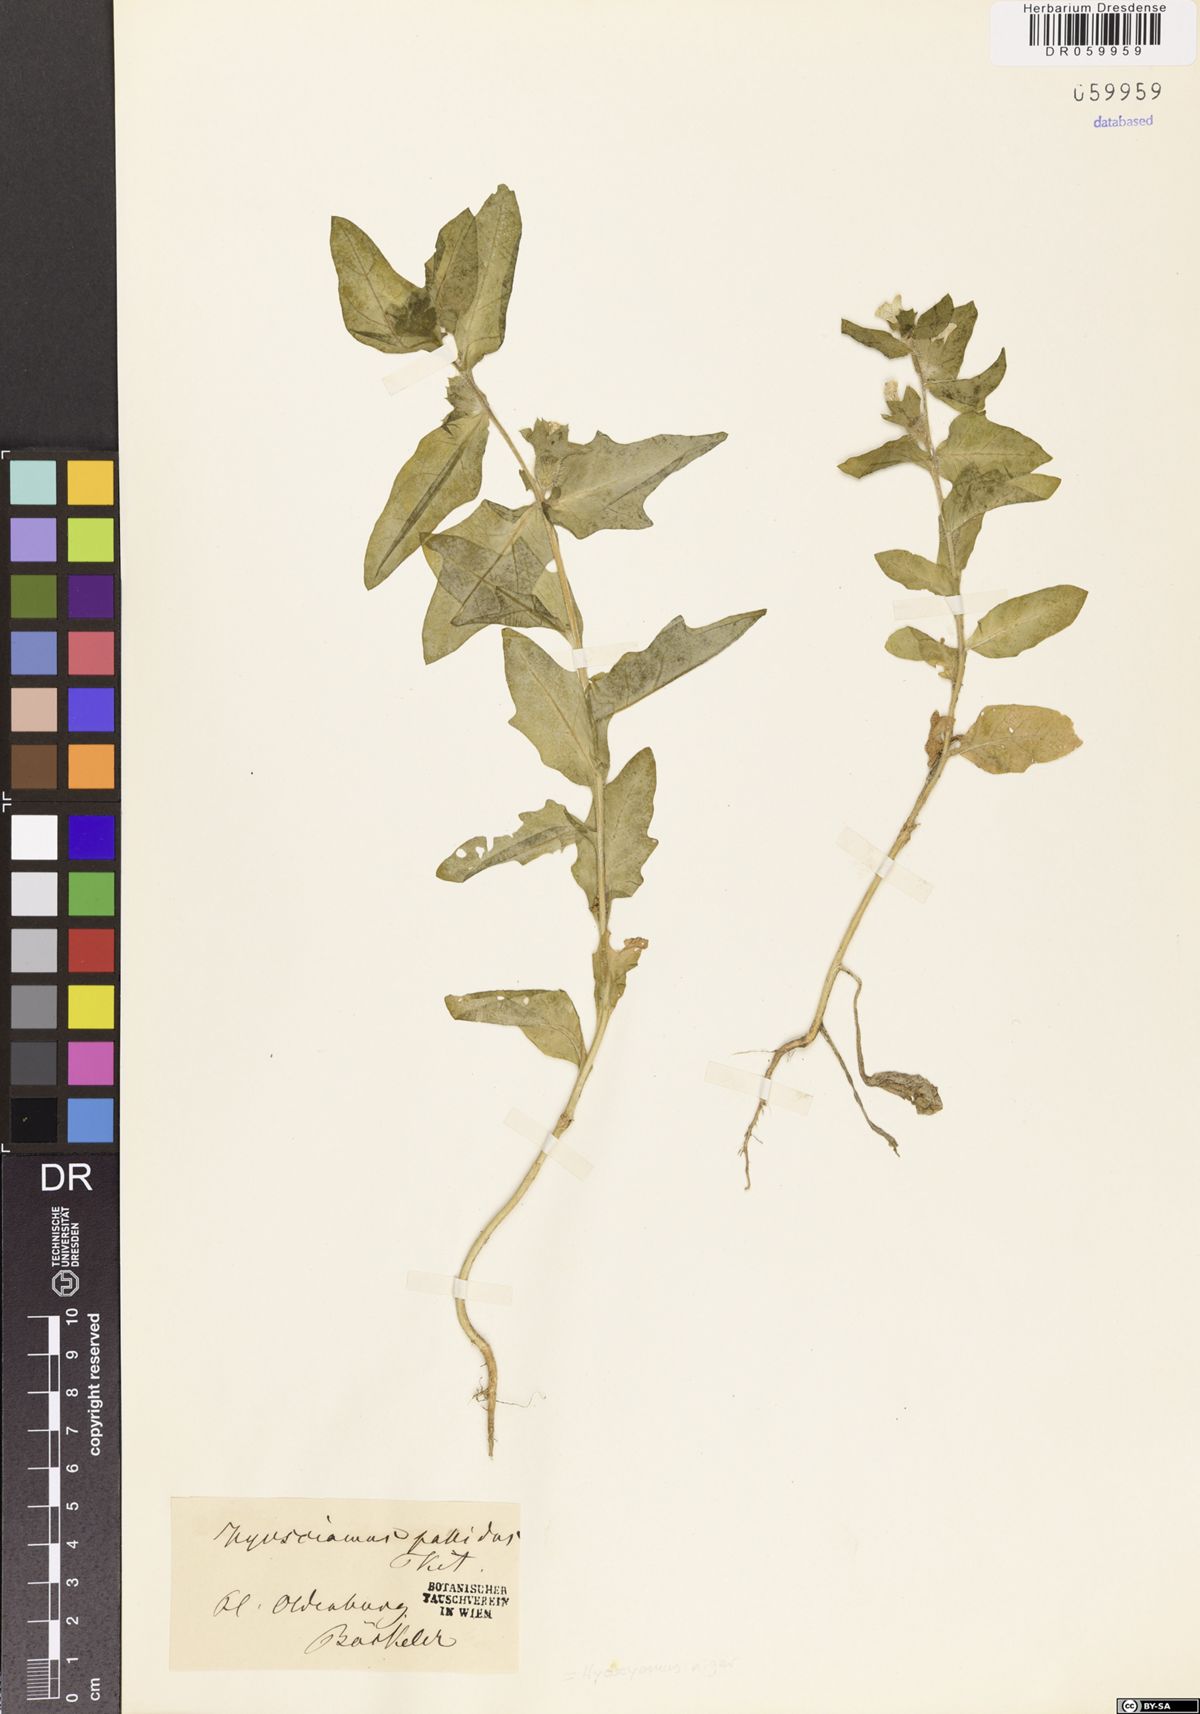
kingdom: Plantae
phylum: Tracheophyta
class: Magnoliopsida
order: Solanales
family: Solanaceae
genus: Hyoscyamus
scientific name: Hyoscyamus niger
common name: Henbane
